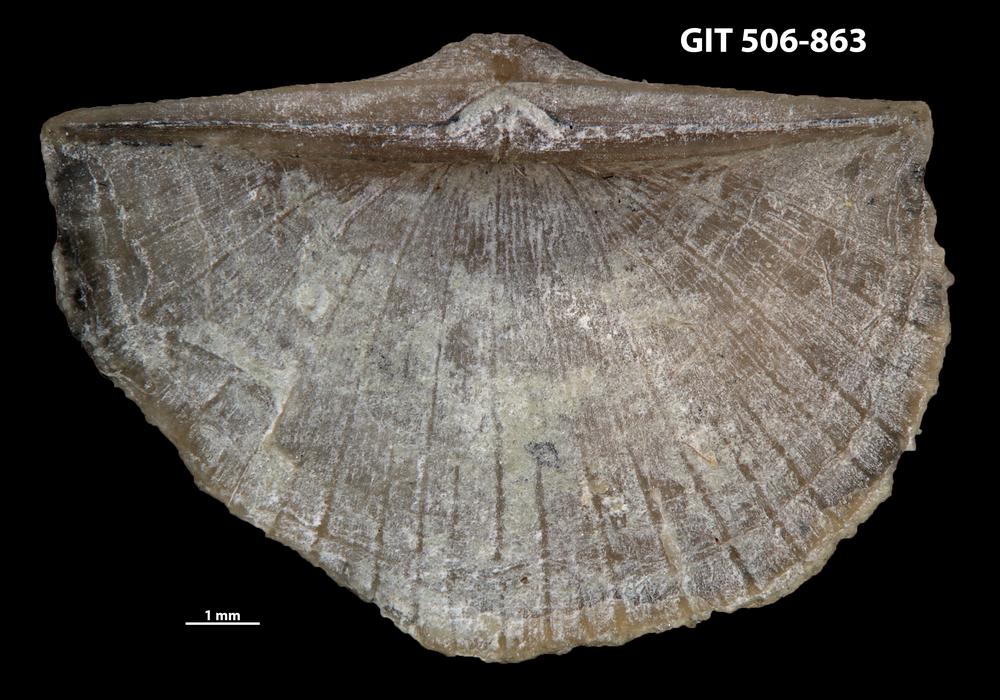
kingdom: Animalia
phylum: Brachiopoda
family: Oldhaminidae
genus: Eoplectodonta
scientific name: Eoplectodonta exceptionis
